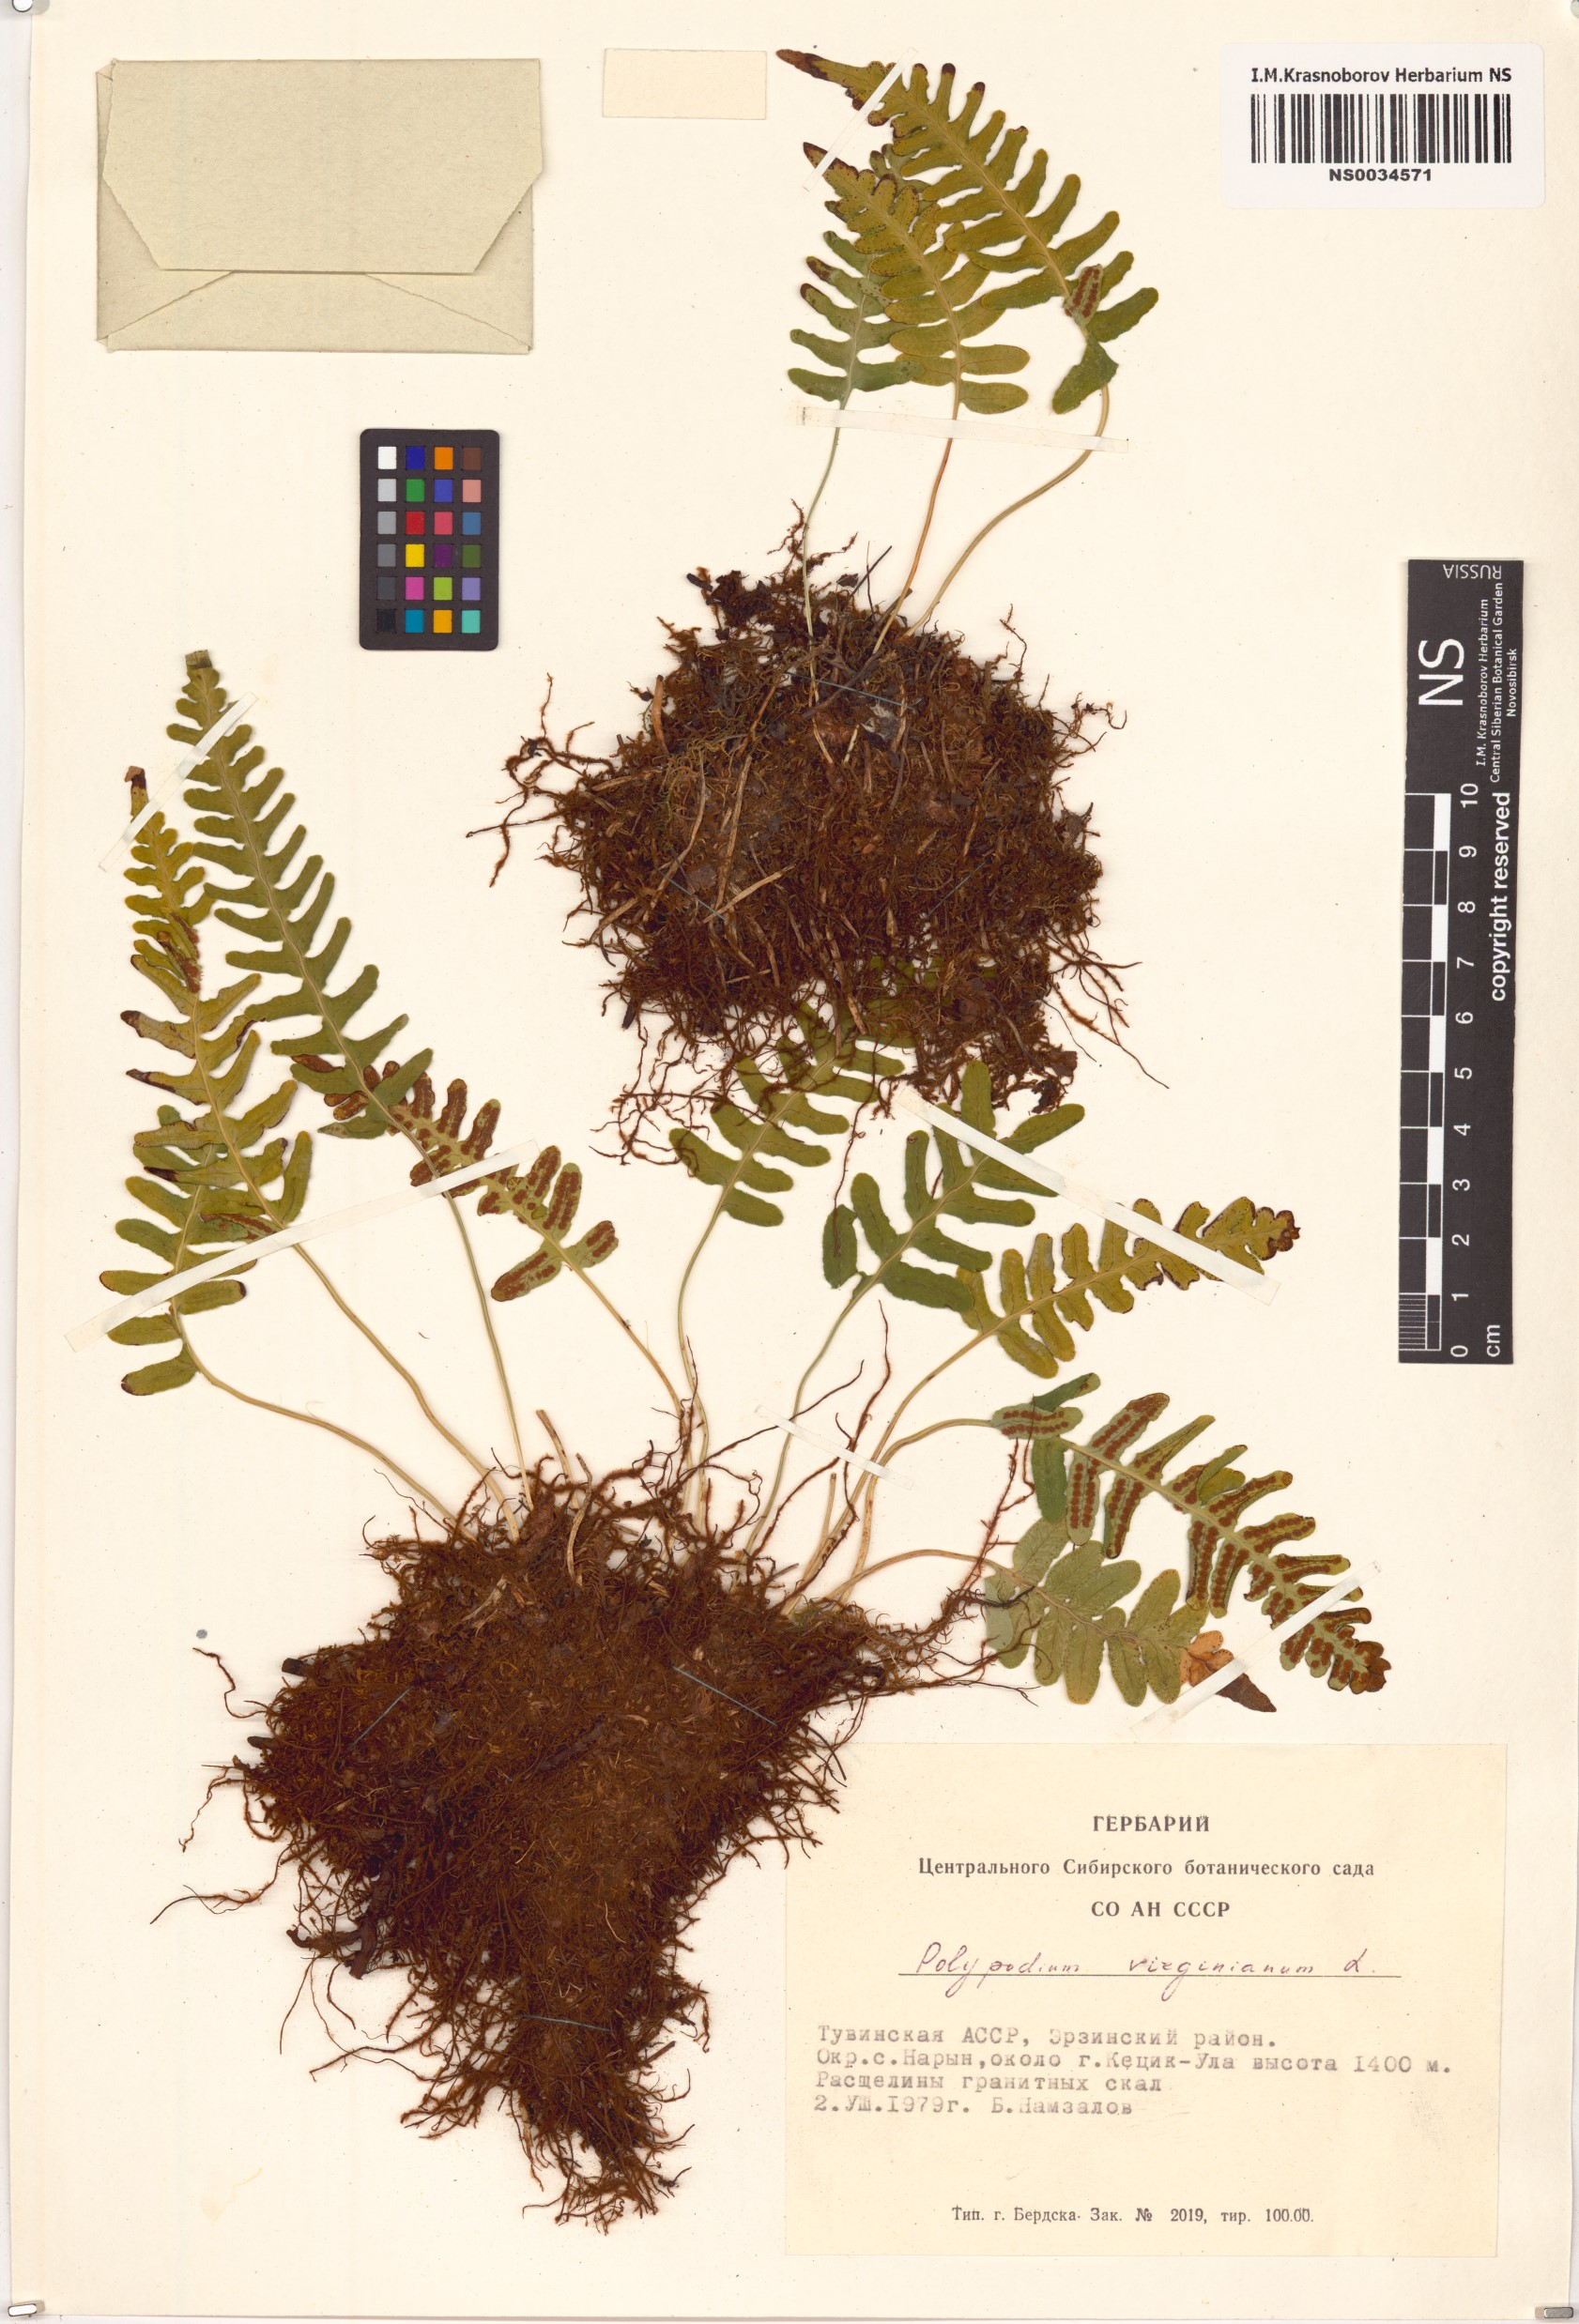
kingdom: Plantae
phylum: Tracheophyta
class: Polypodiopsida
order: Polypodiales
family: Polypodiaceae
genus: Polypodium
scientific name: Polypodium virginianum
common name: American wall fern
